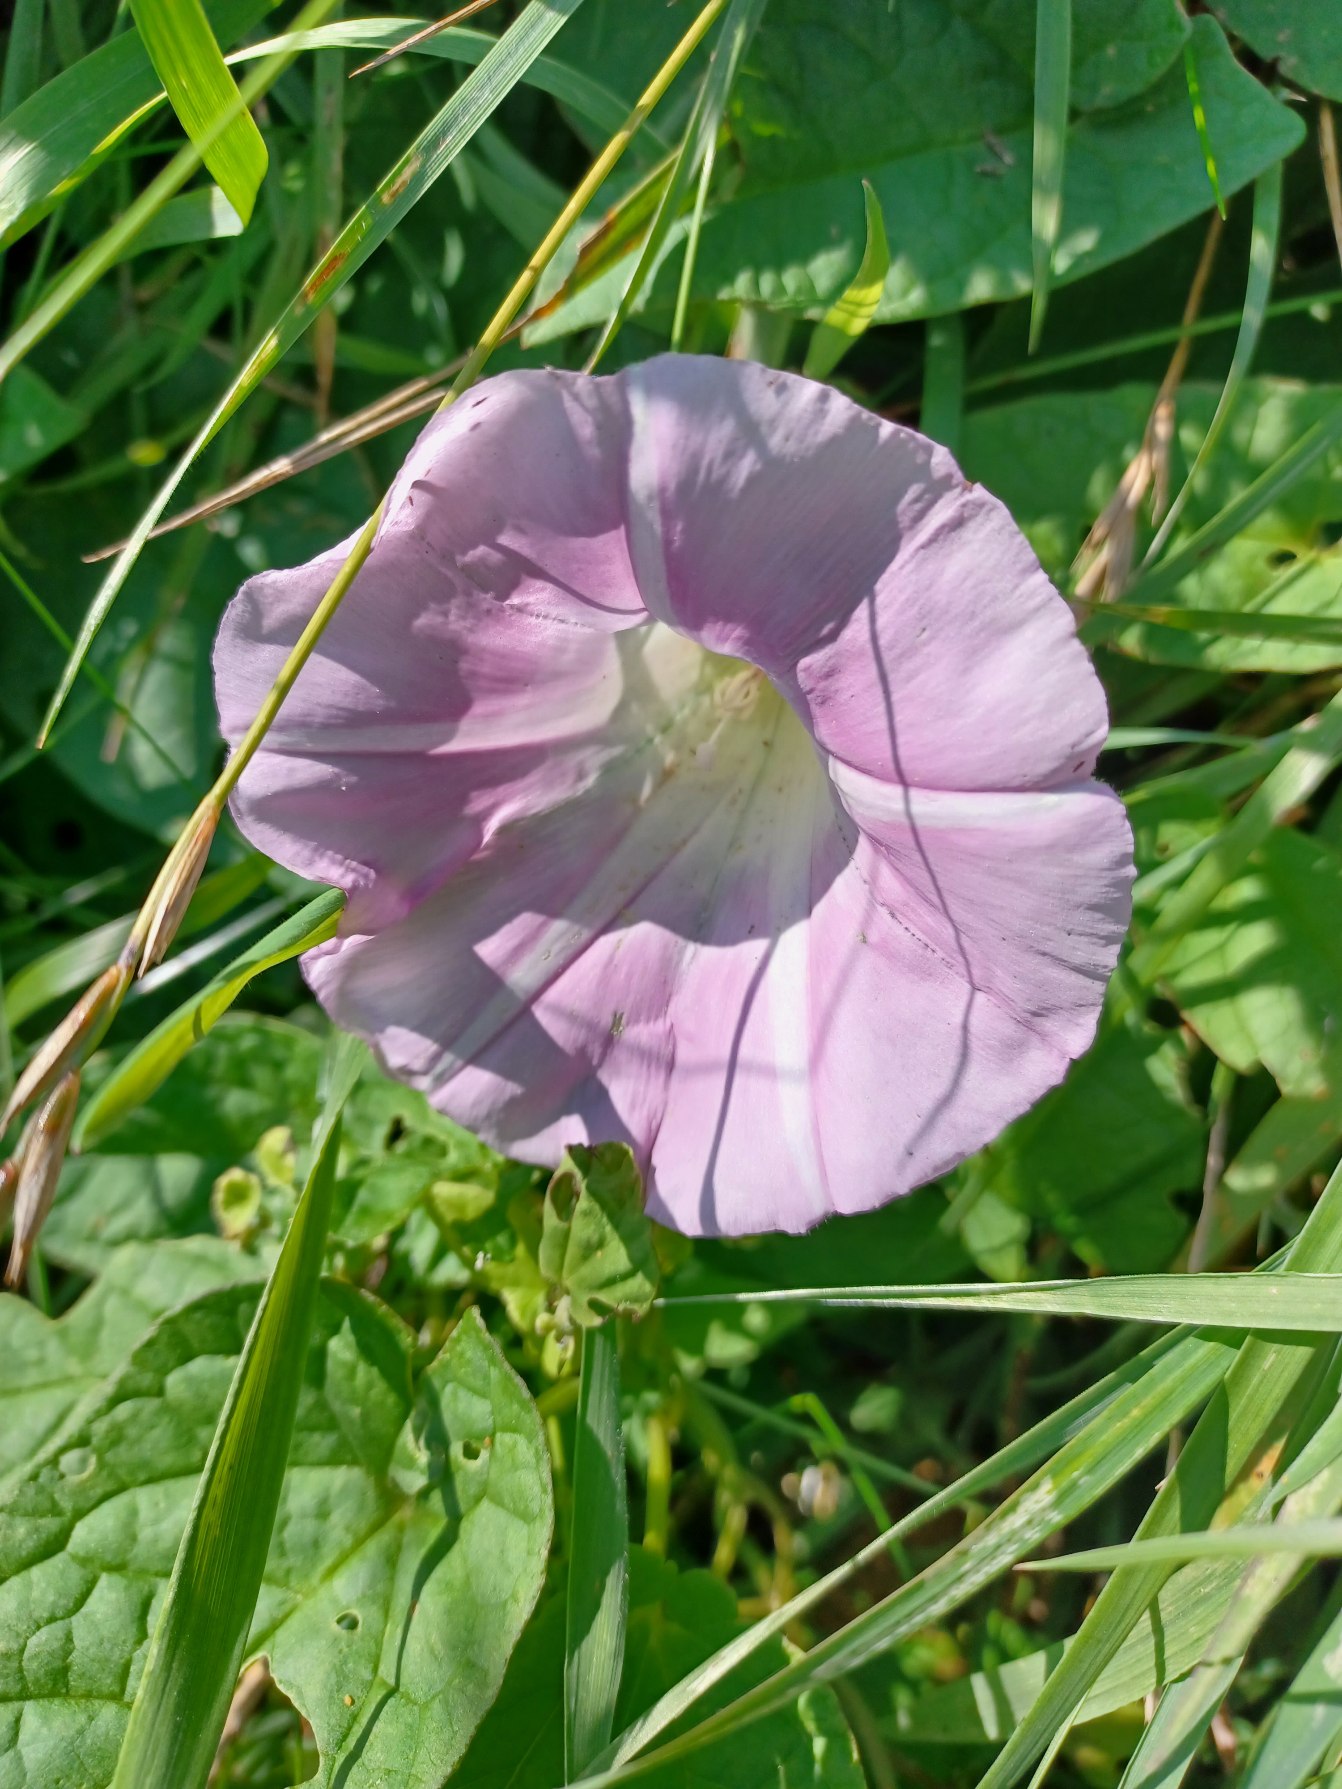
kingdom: Plantae
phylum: Tracheophyta
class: Magnoliopsida
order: Solanales
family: Convolvulaceae
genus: Calystegia
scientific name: Calystegia
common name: Snerle (Calystegia-slægten)
